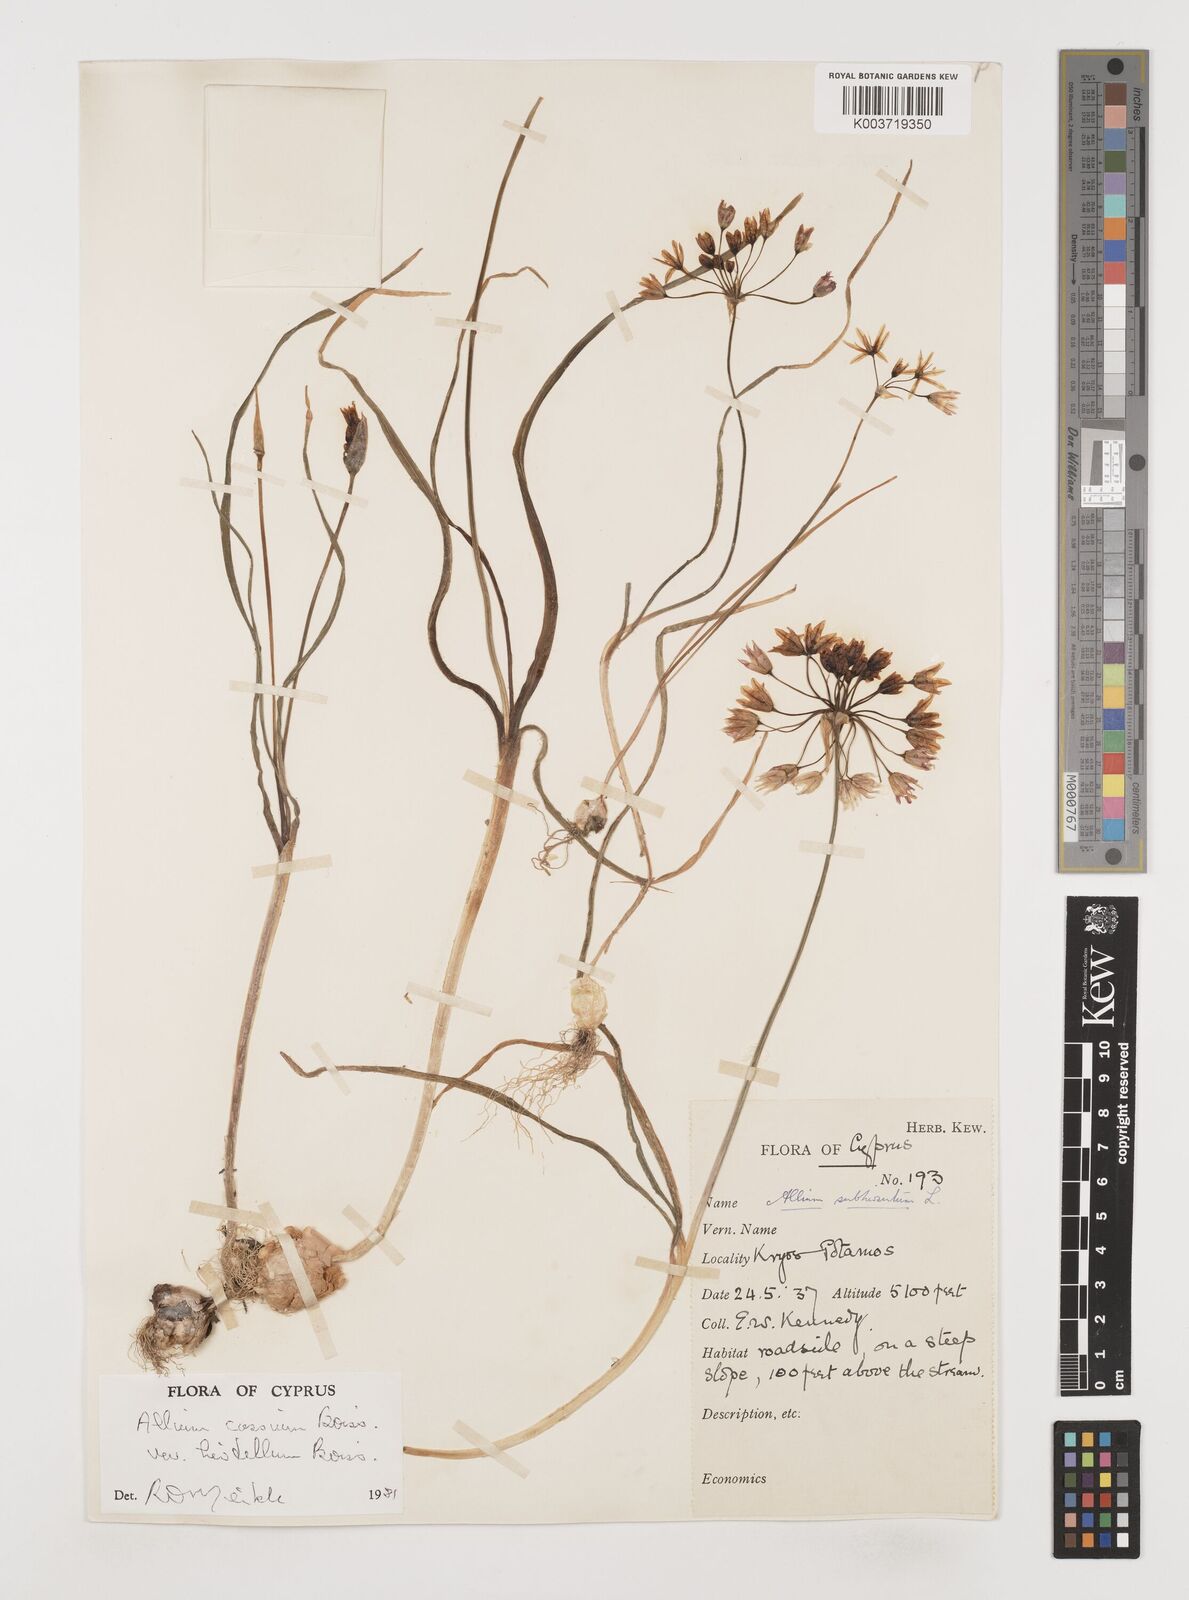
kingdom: Plantae
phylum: Tracheophyta
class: Liliopsida
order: Asparagales
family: Amaryllidaceae
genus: Allium
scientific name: Allium cassium
